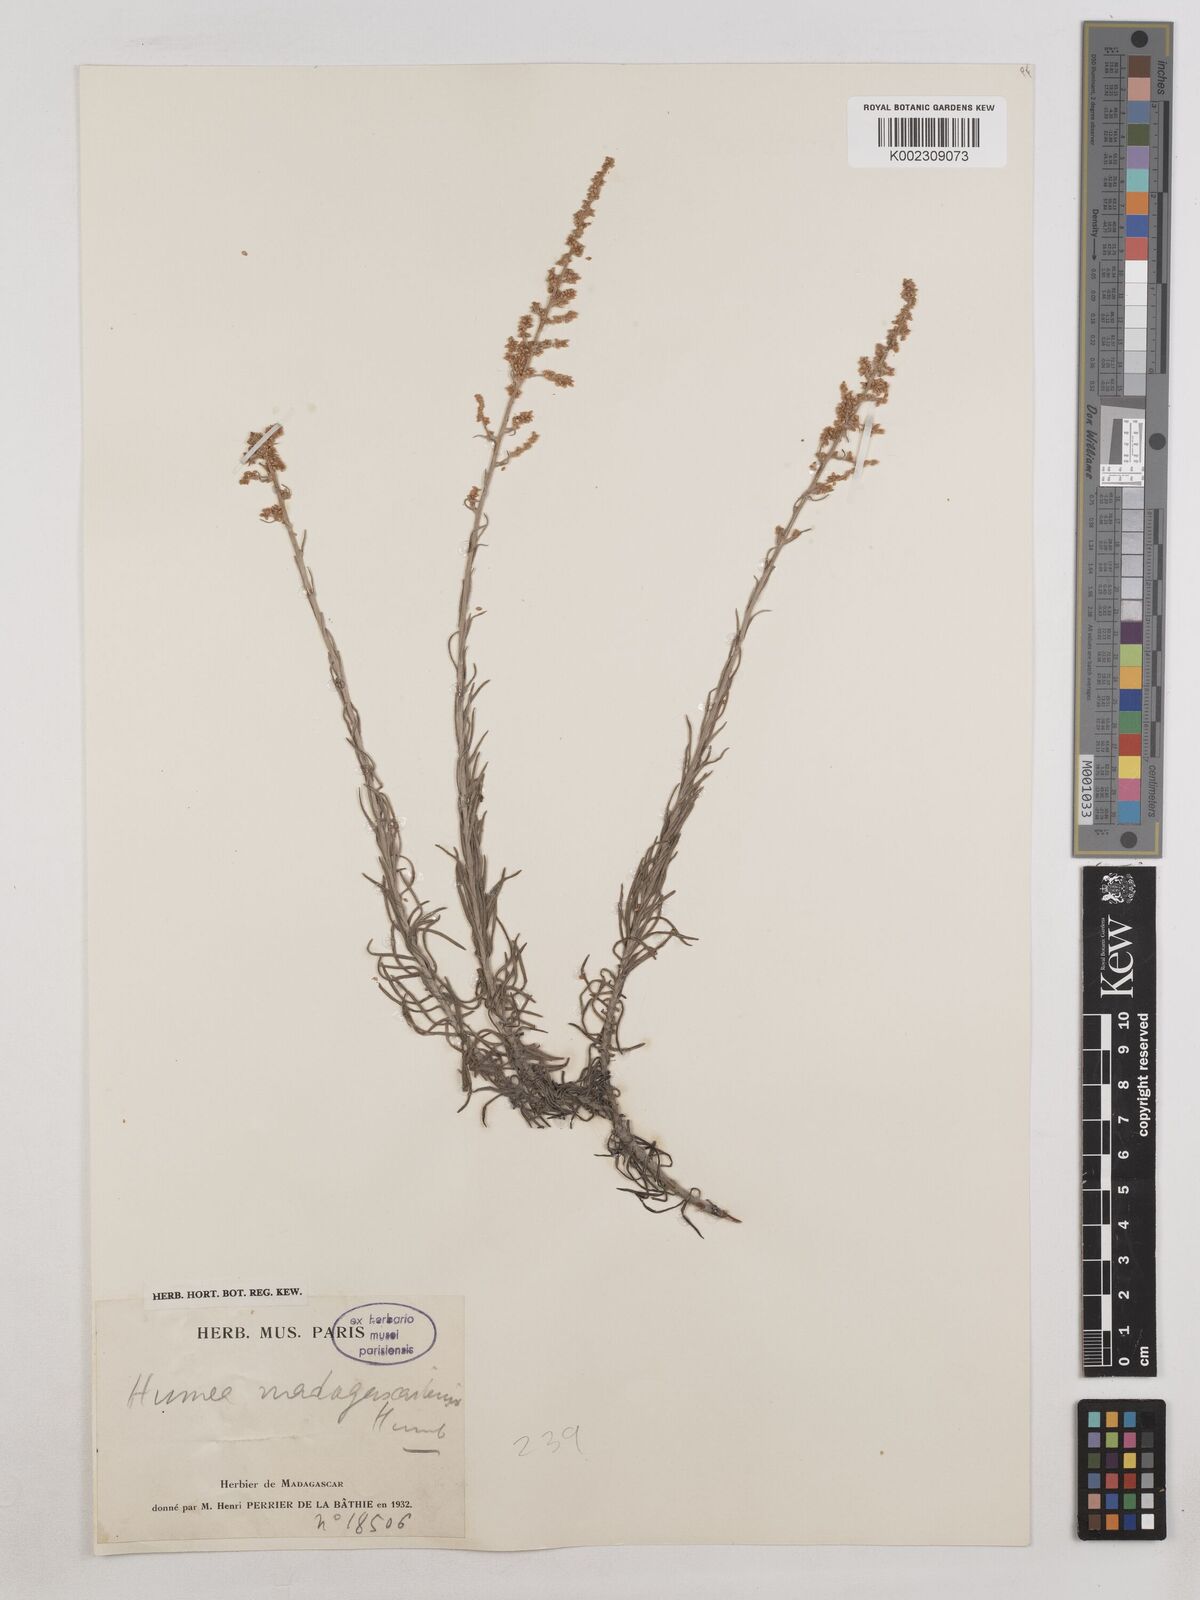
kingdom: Plantae
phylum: Tracheophyta
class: Magnoliopsida
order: Asterales
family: Asteraceae
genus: Humeocline
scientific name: Humeocline madagascariensis
